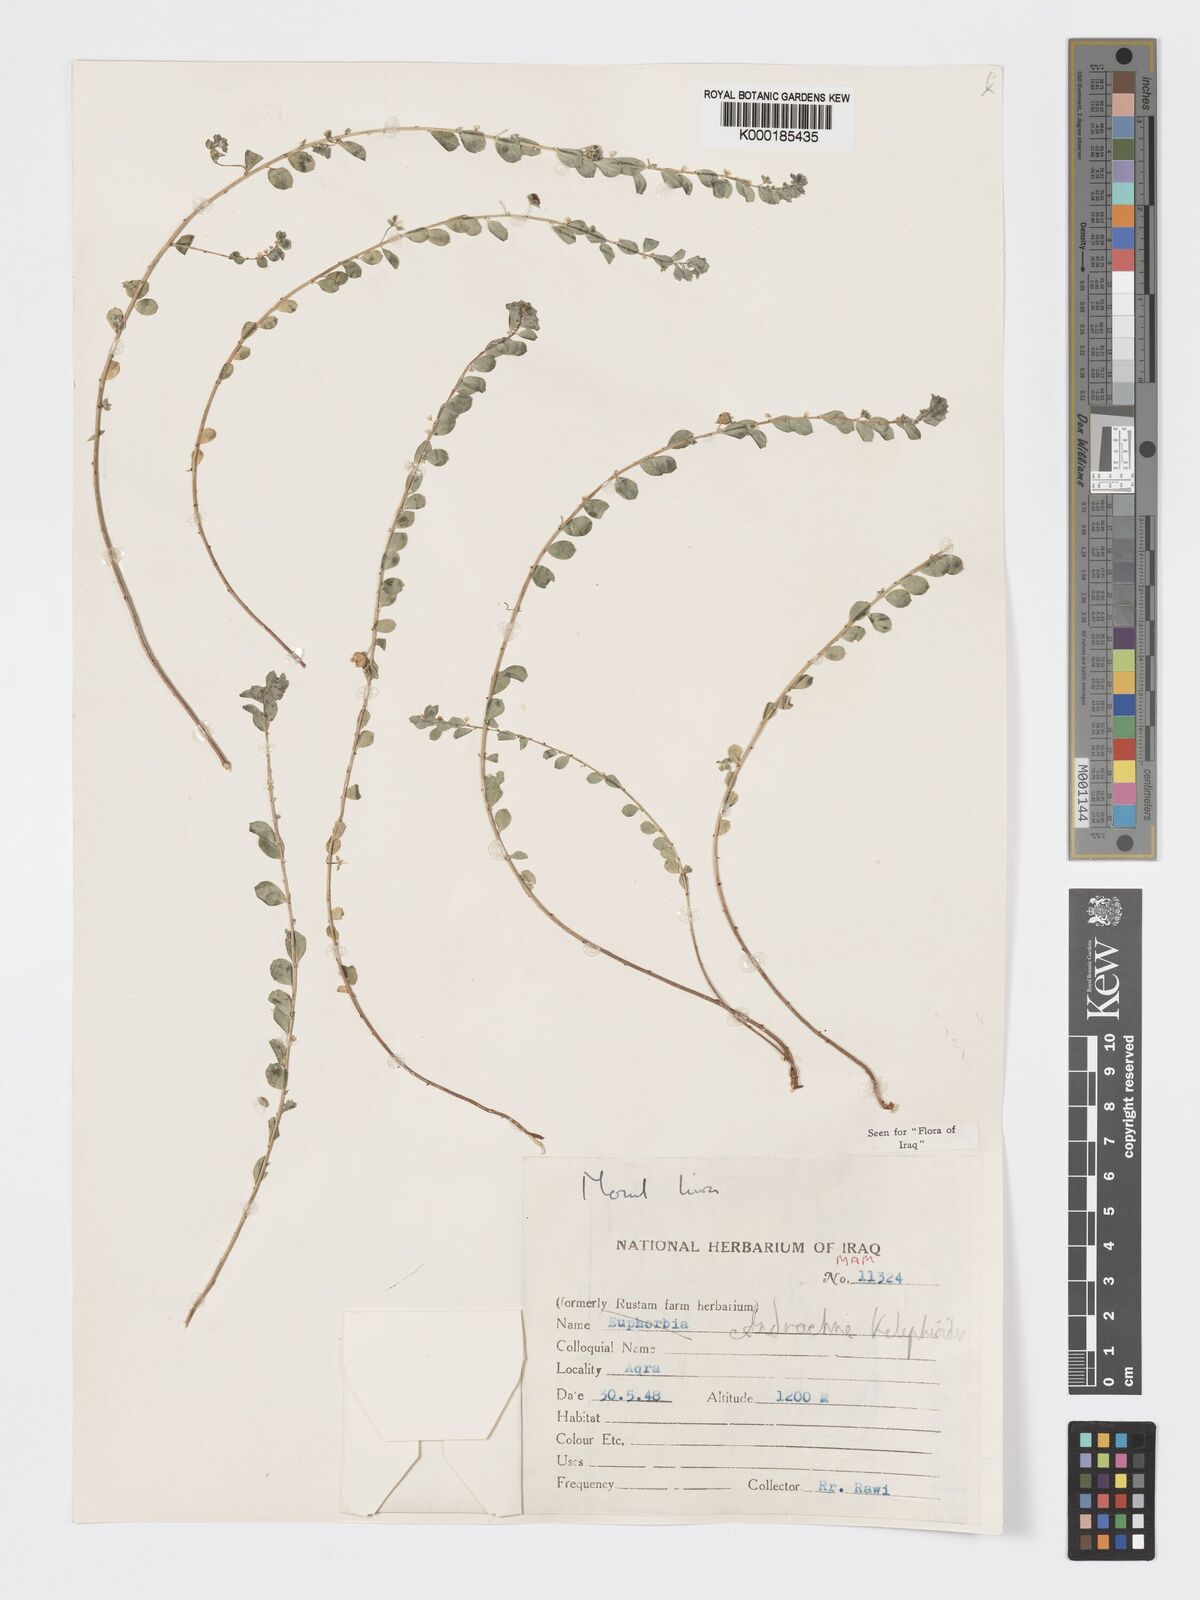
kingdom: Plantae
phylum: Tracheophyta
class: Magnoliopsida
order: Malpighiales
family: Phyllanthaceae
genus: Andrachne
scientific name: Andrachne telephioides
